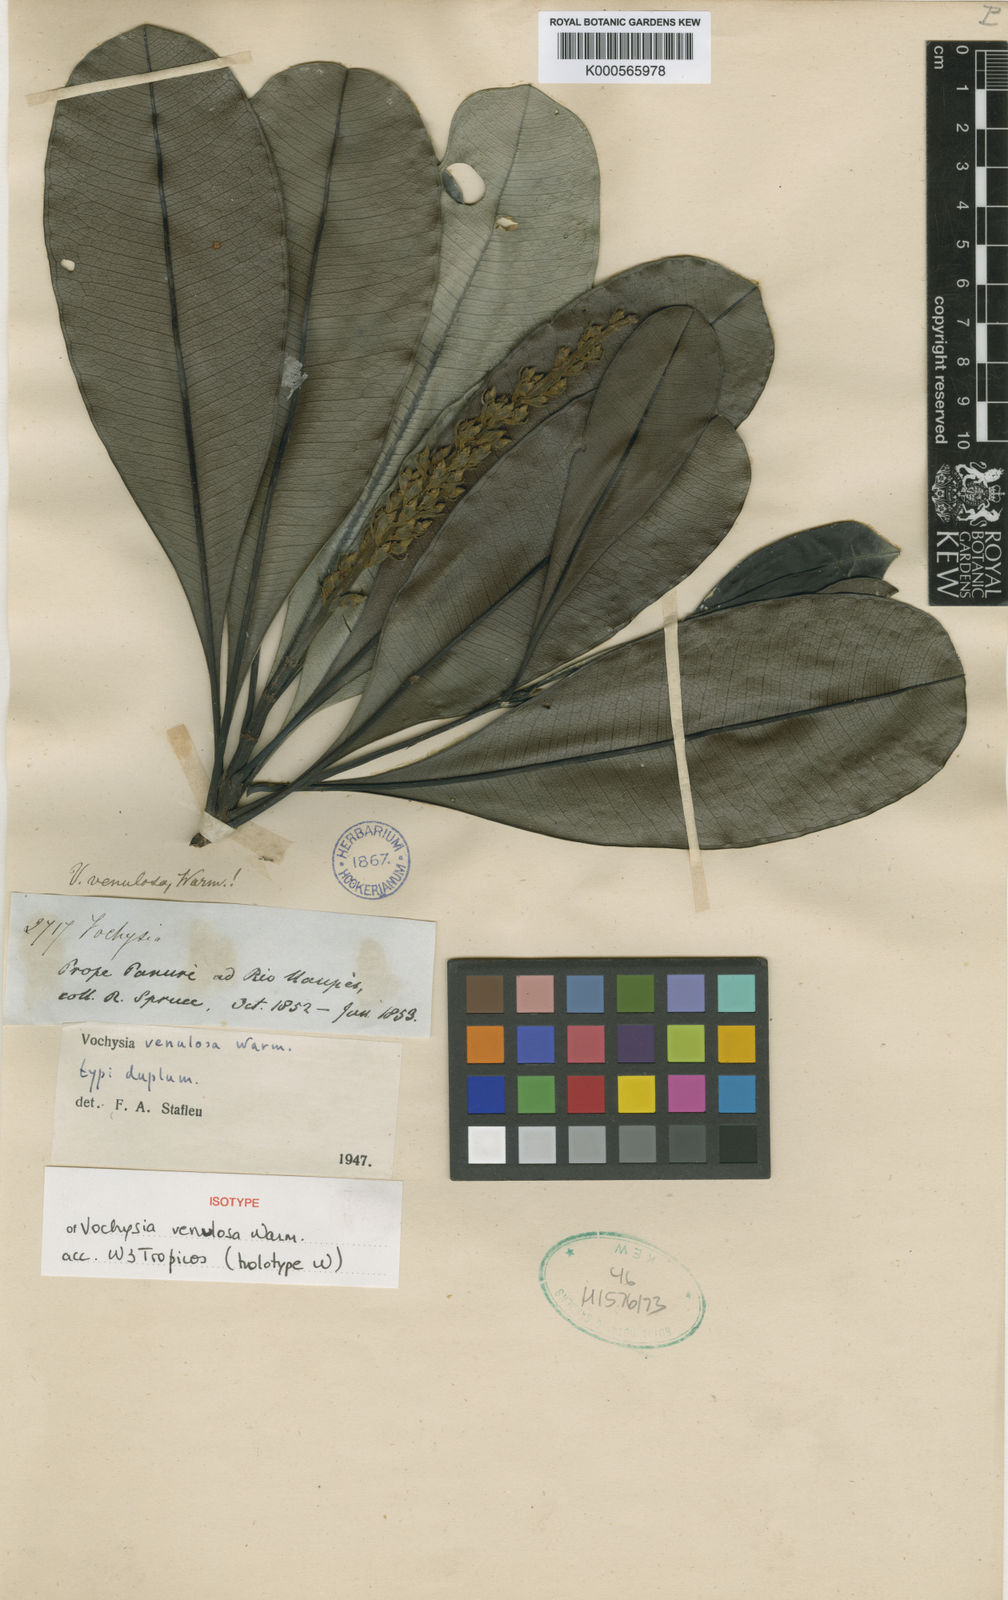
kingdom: Plantae
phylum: Tracheophyta
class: Magnoliopsida
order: Myrtales
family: Vochysiaceae
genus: Vochysia
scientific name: Vochysia venulosa
